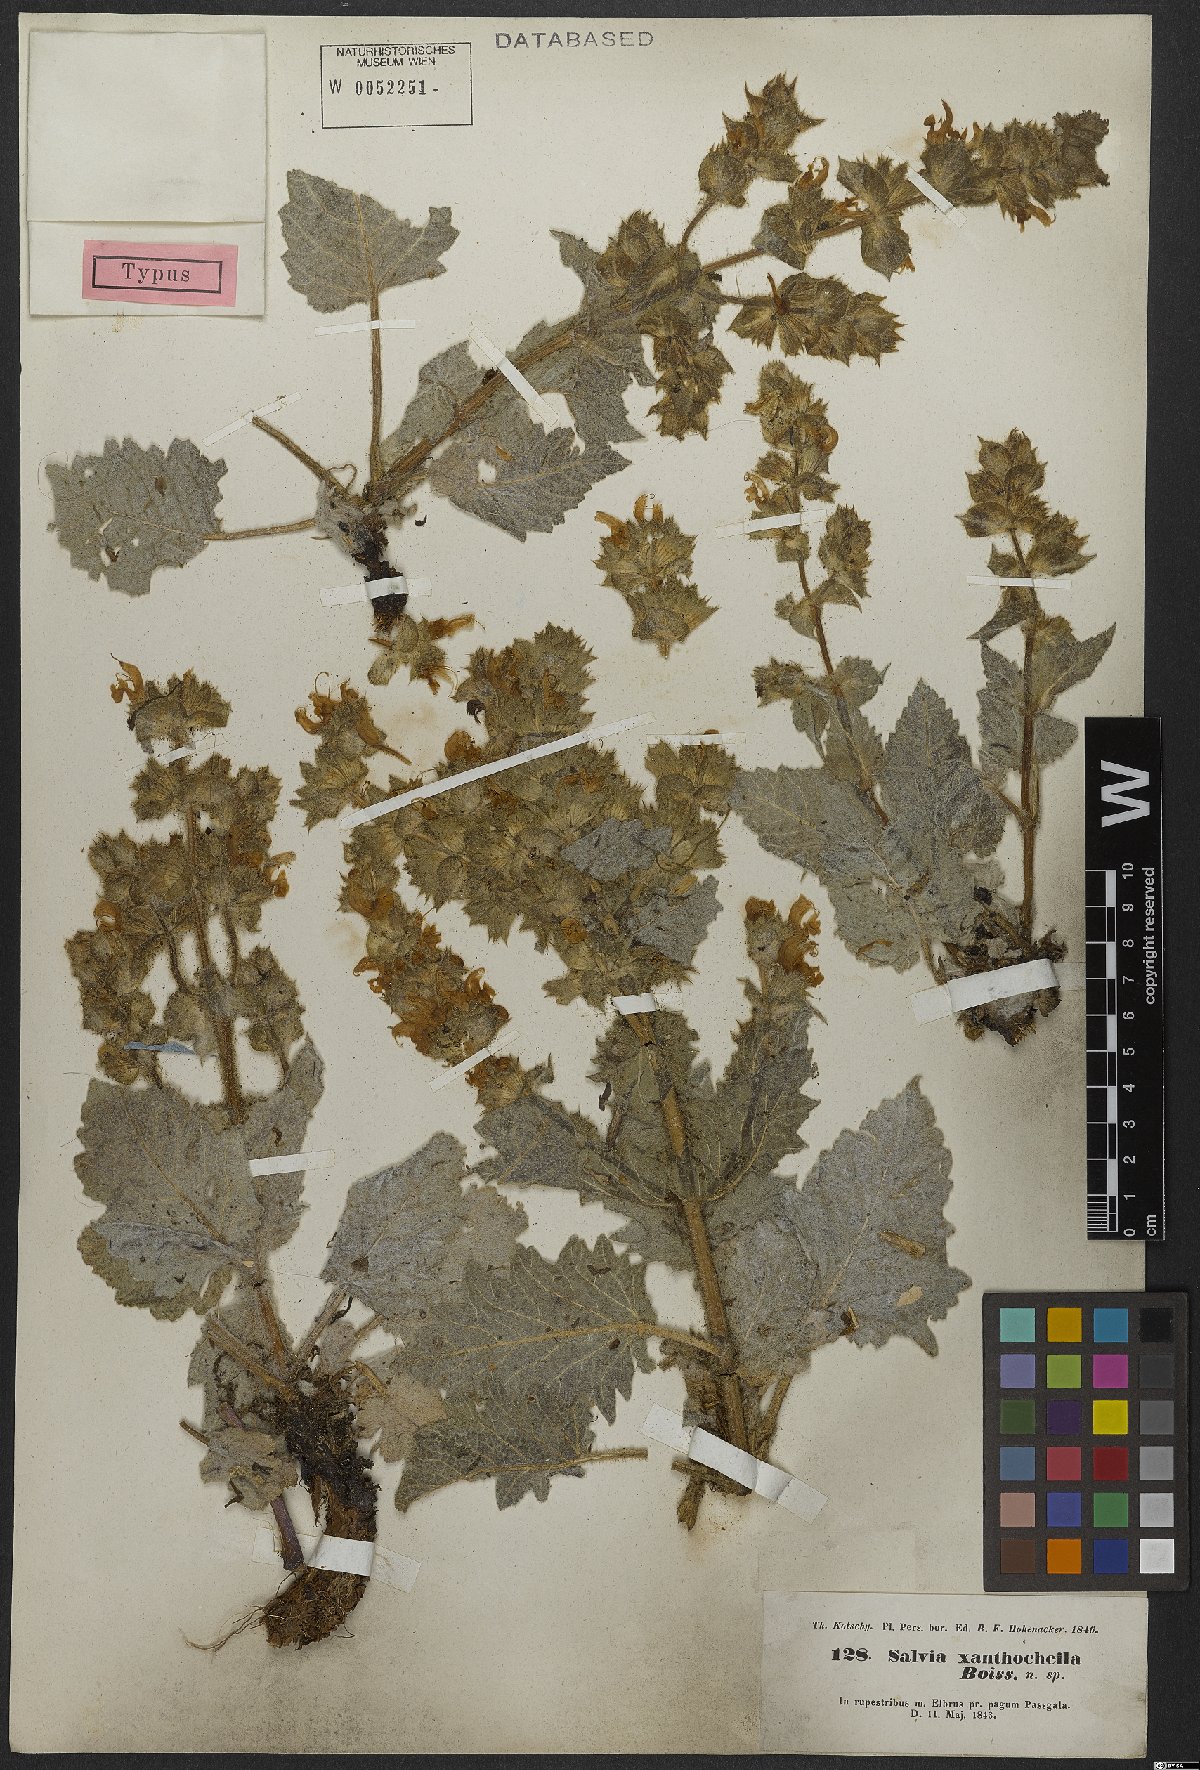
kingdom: Plantae
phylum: Tracheophyta
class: Magnoliopsida
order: Lamiales
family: Lamiaceae
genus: Salvia
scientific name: Salvia xanthocheila
